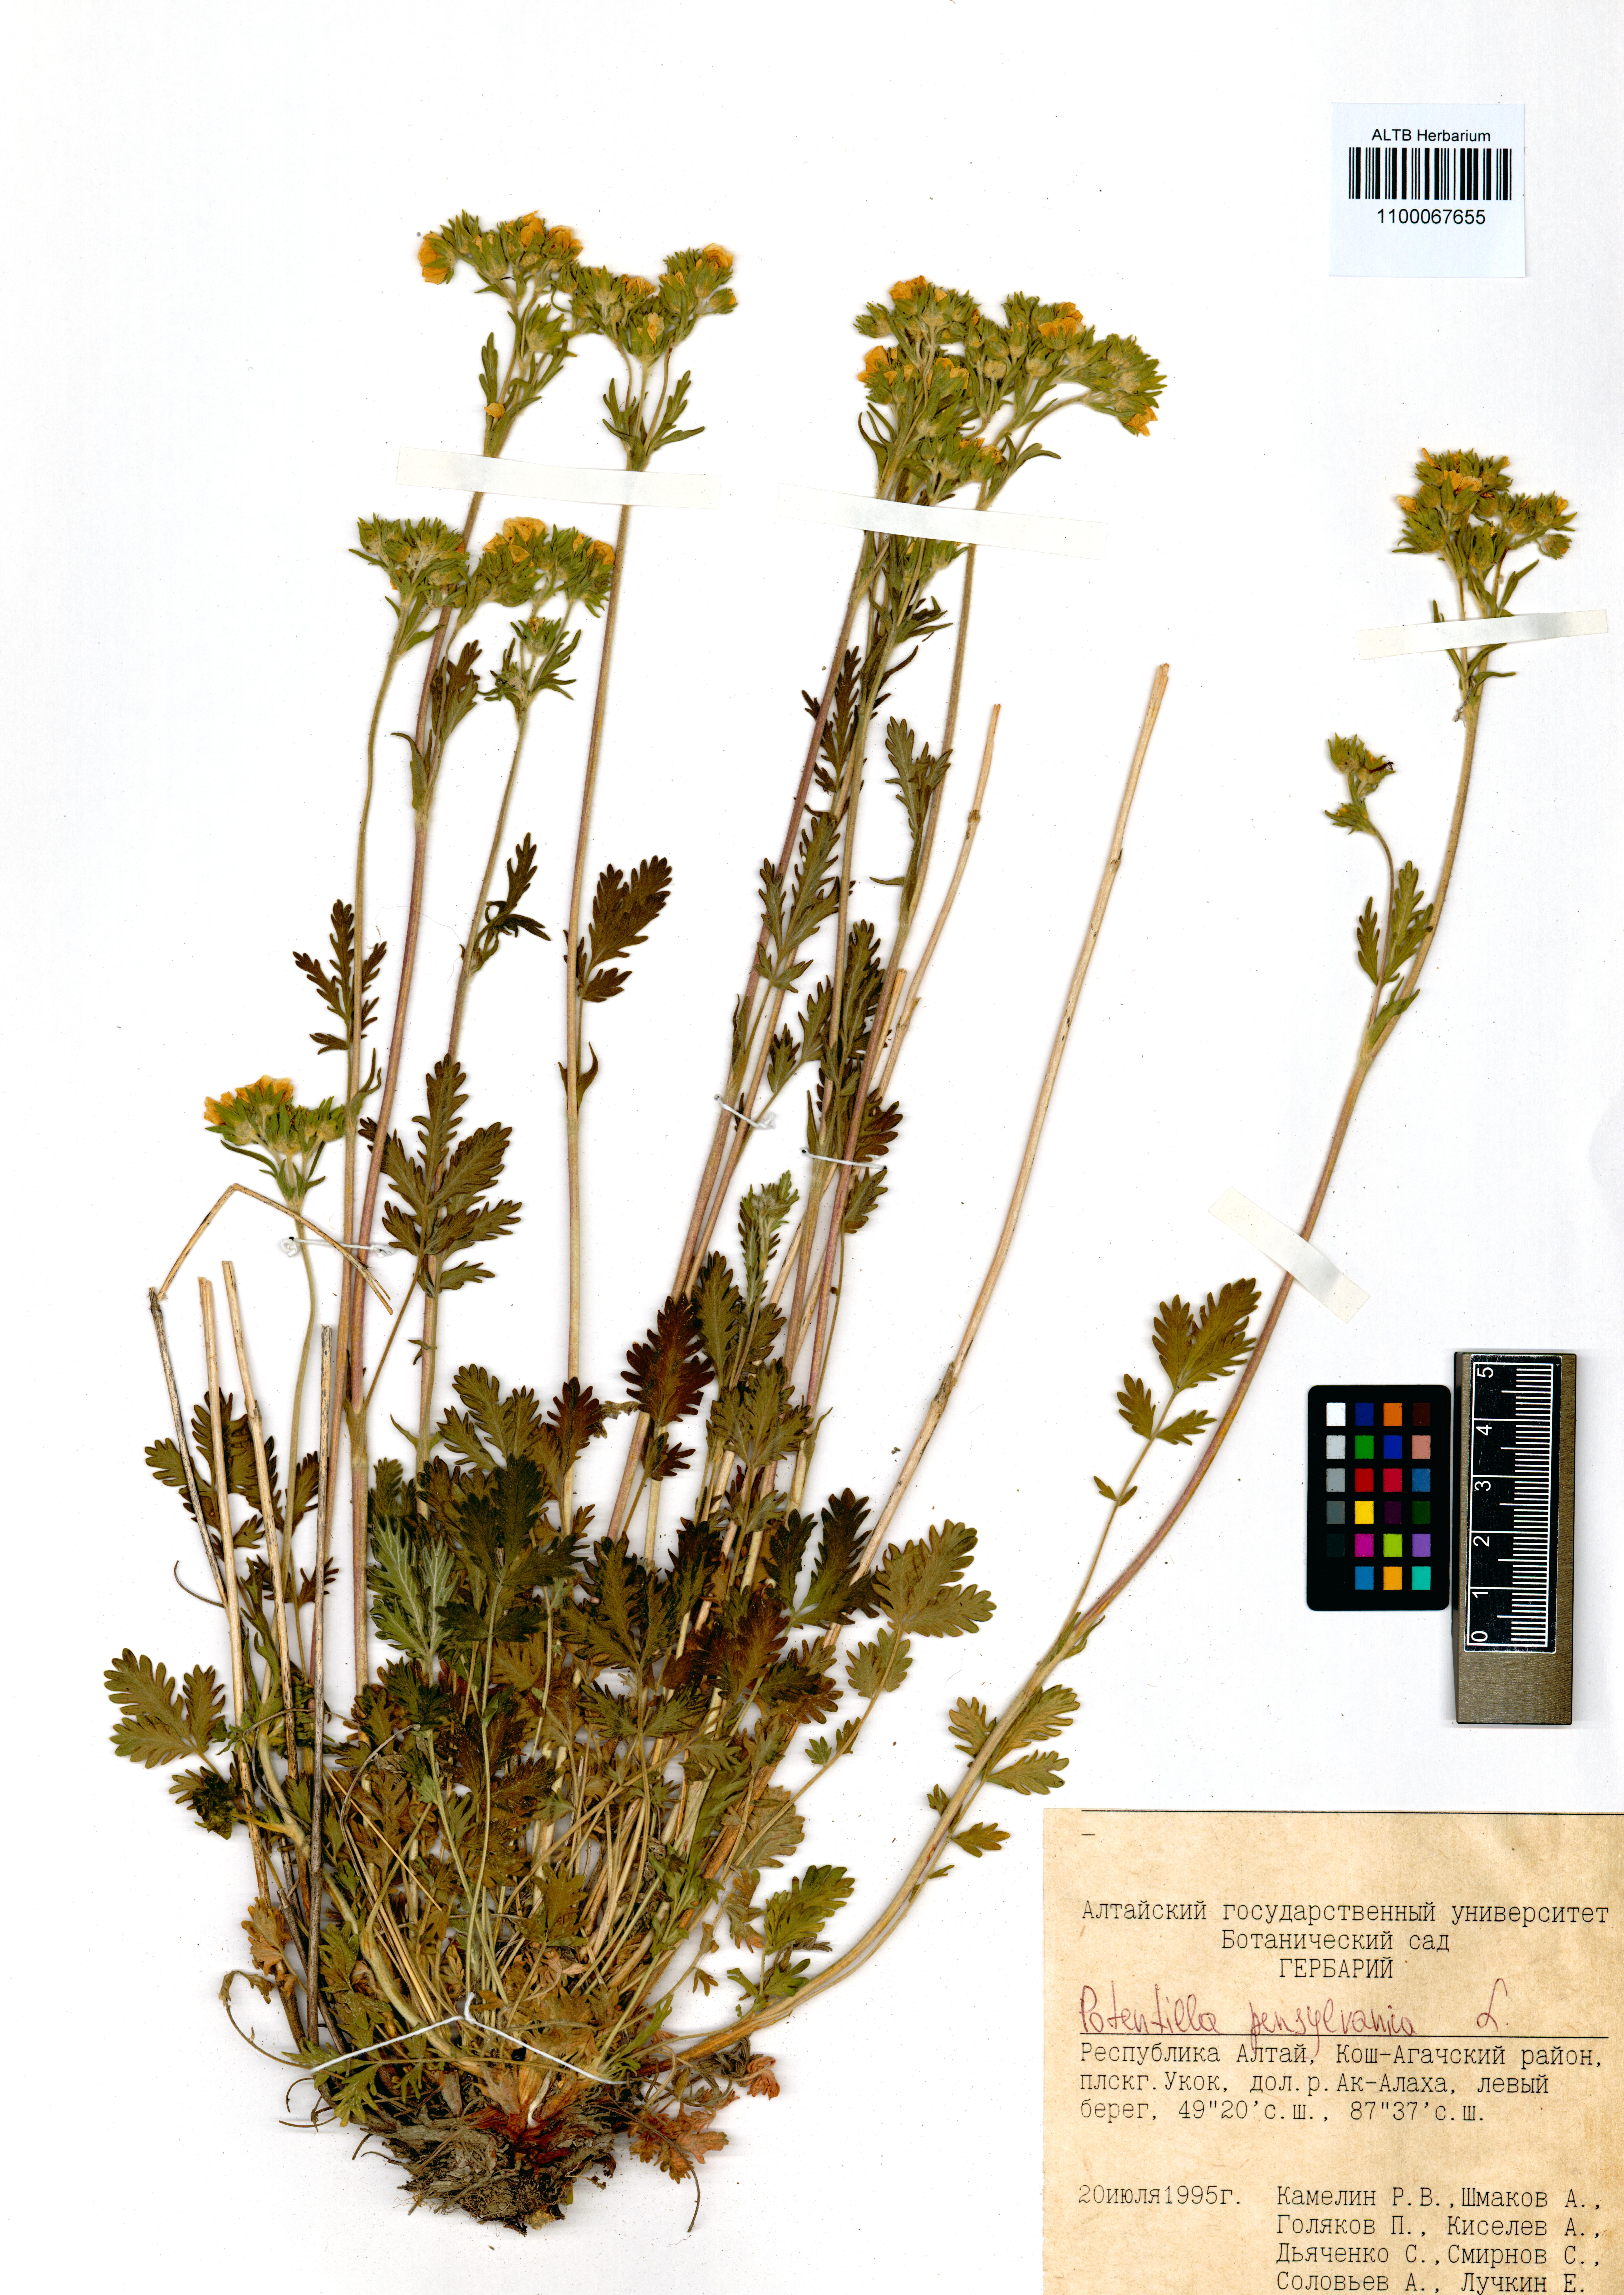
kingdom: Plantae
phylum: Tracheophyta
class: Magnoliopsida
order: Rosales
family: Rosaceae
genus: Potentilla
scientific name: Potentilla pensylvanica
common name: Pennsylvania cinquefoil
